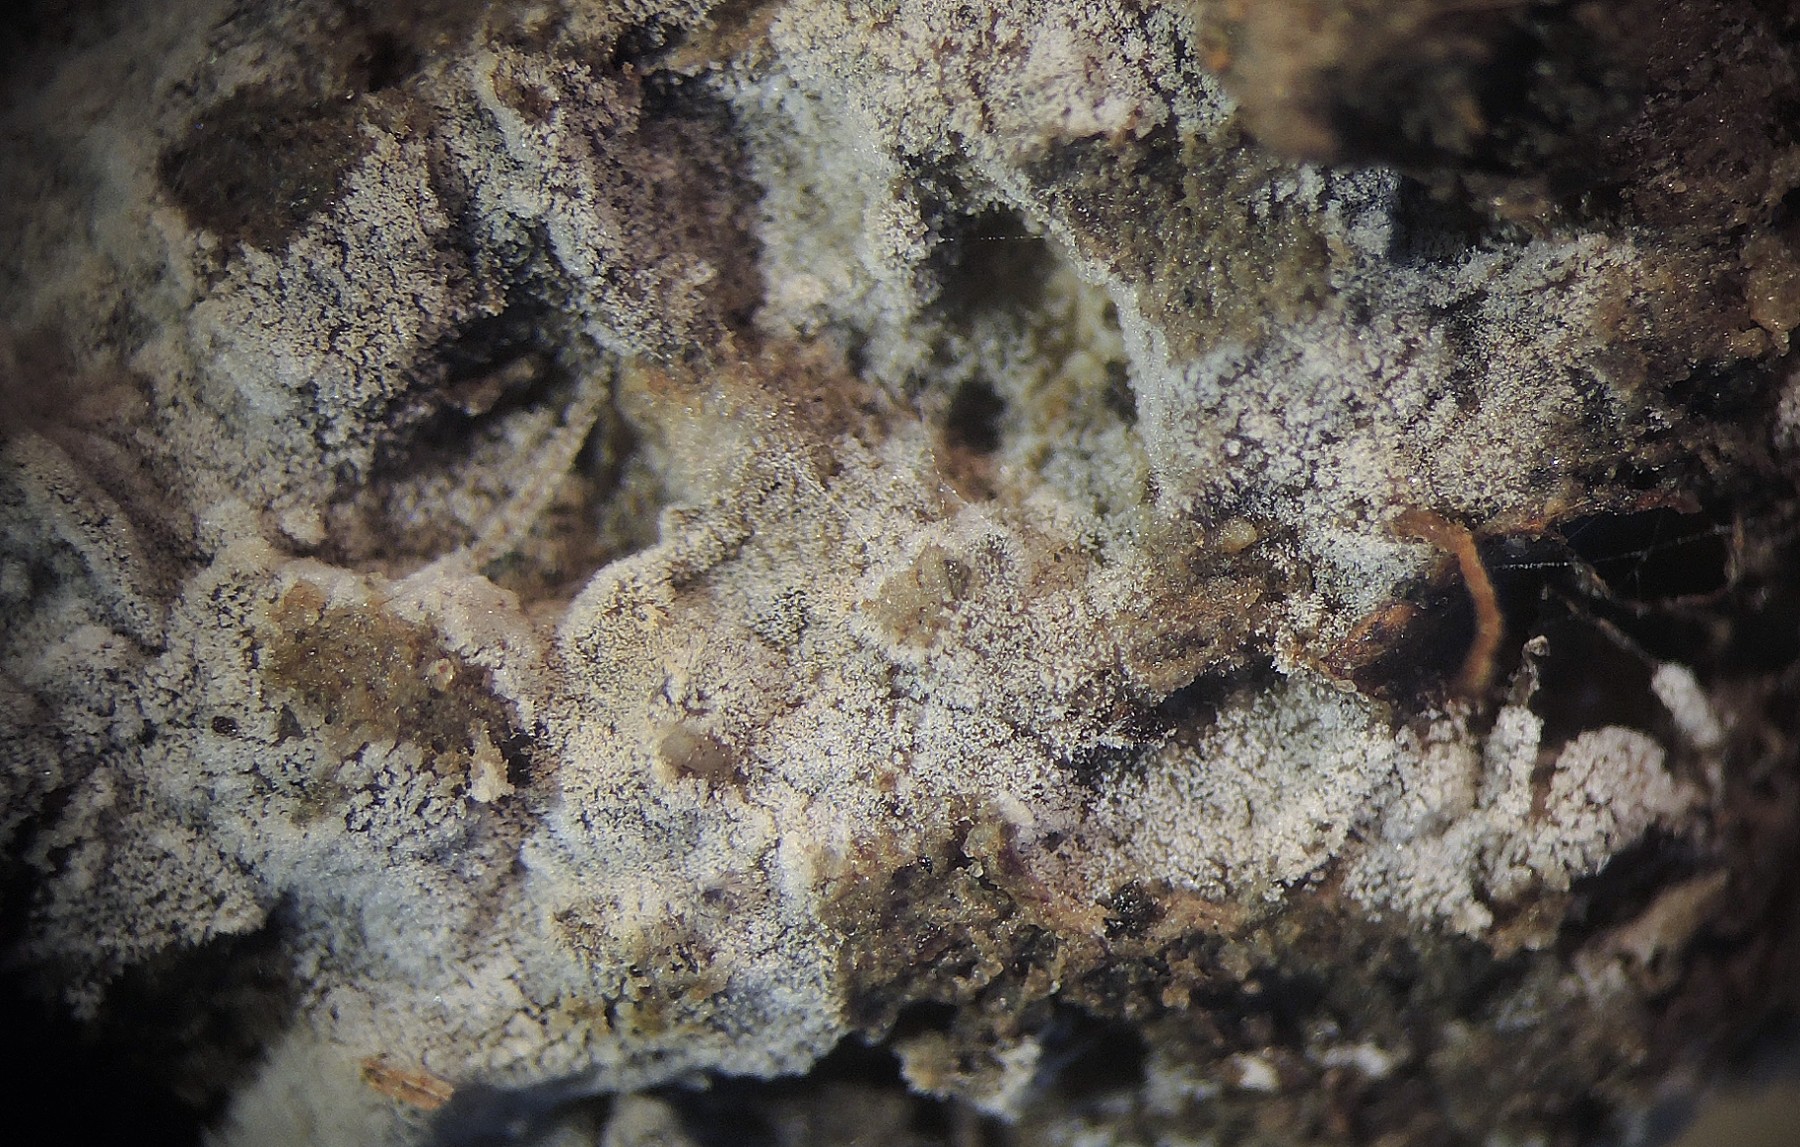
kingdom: Fungi
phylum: Basidiomycota
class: Agaricomycetes
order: Cantharellales
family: Ceratobasidiaceae
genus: Rhizoctonia
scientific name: Rhizoctonia fusispora
